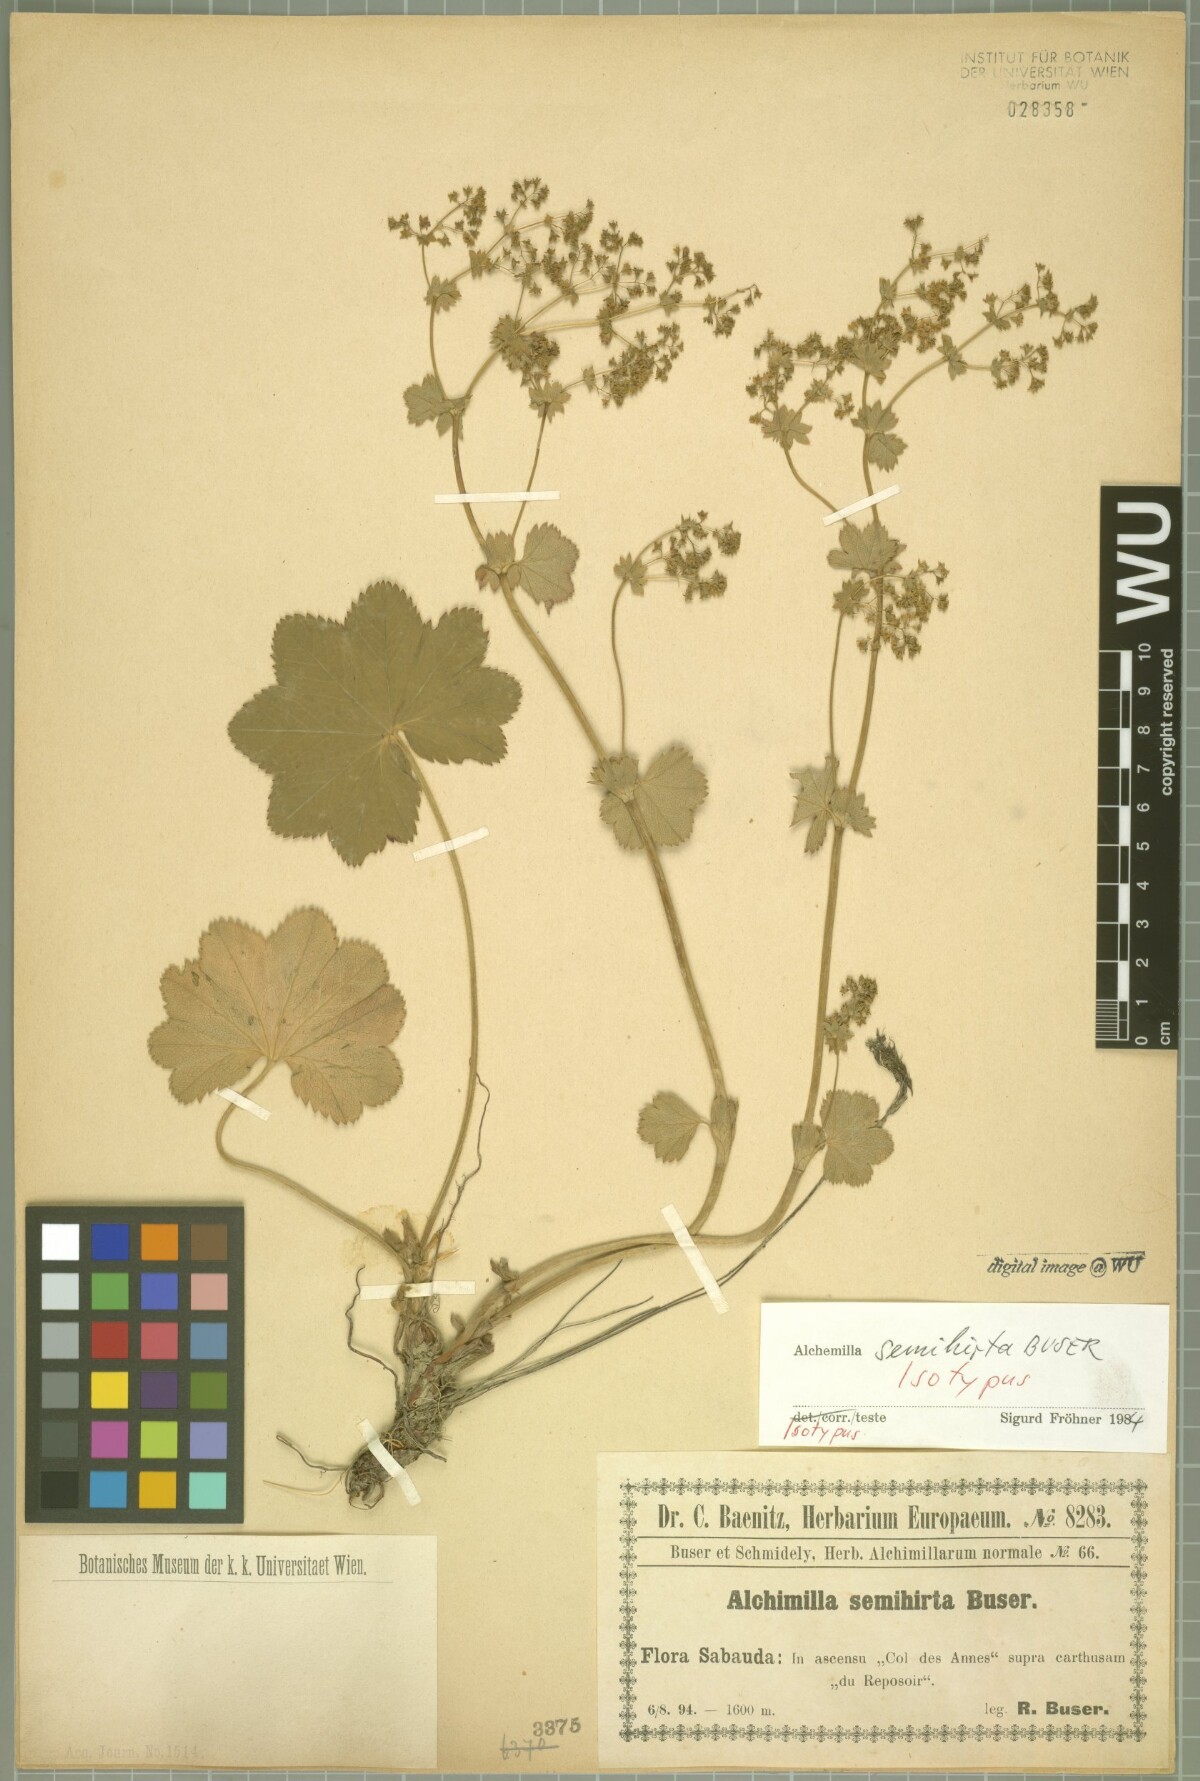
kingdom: Plantae
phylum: Tracheophyta
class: Magnoliopsida
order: Rosales
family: Rosaceae
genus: Alchemilla
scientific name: Alchemilla semihirta
